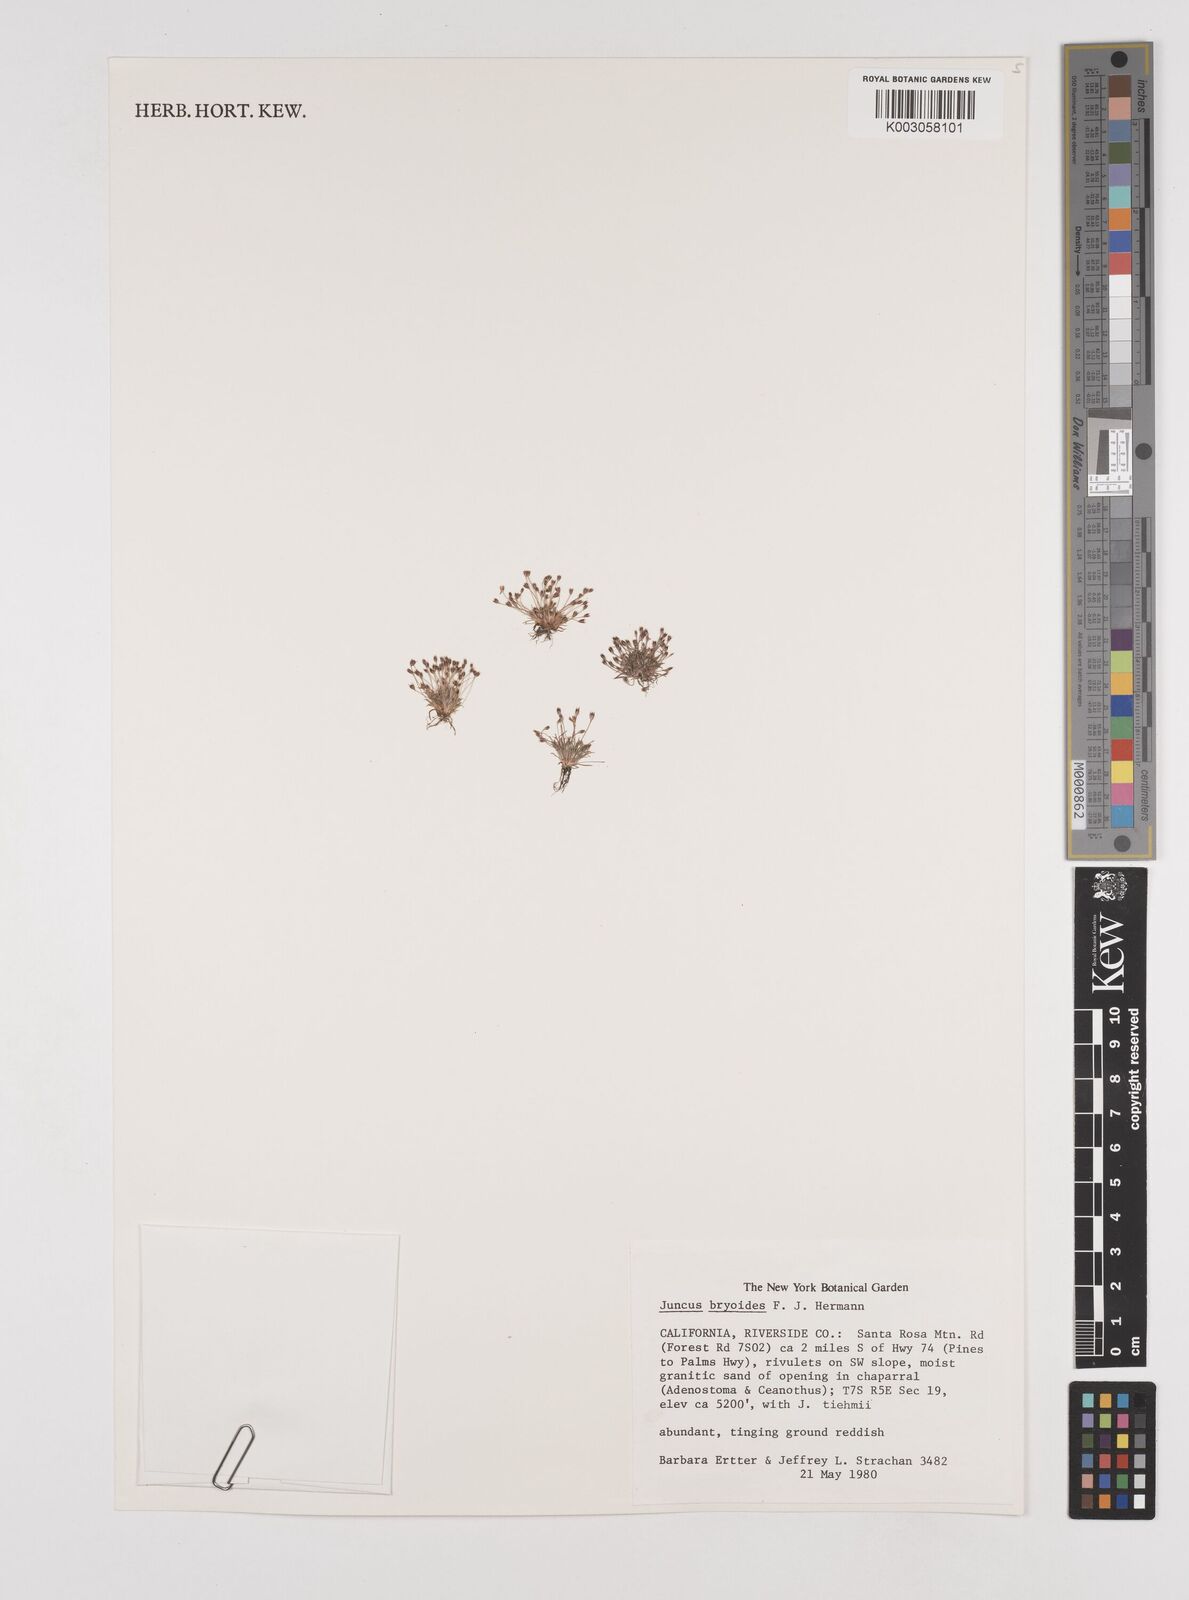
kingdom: Plantae
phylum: Tracheophyta
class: Liliopsida
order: Poales
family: Juncaceae
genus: Juncus
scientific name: Juncus bryoides
